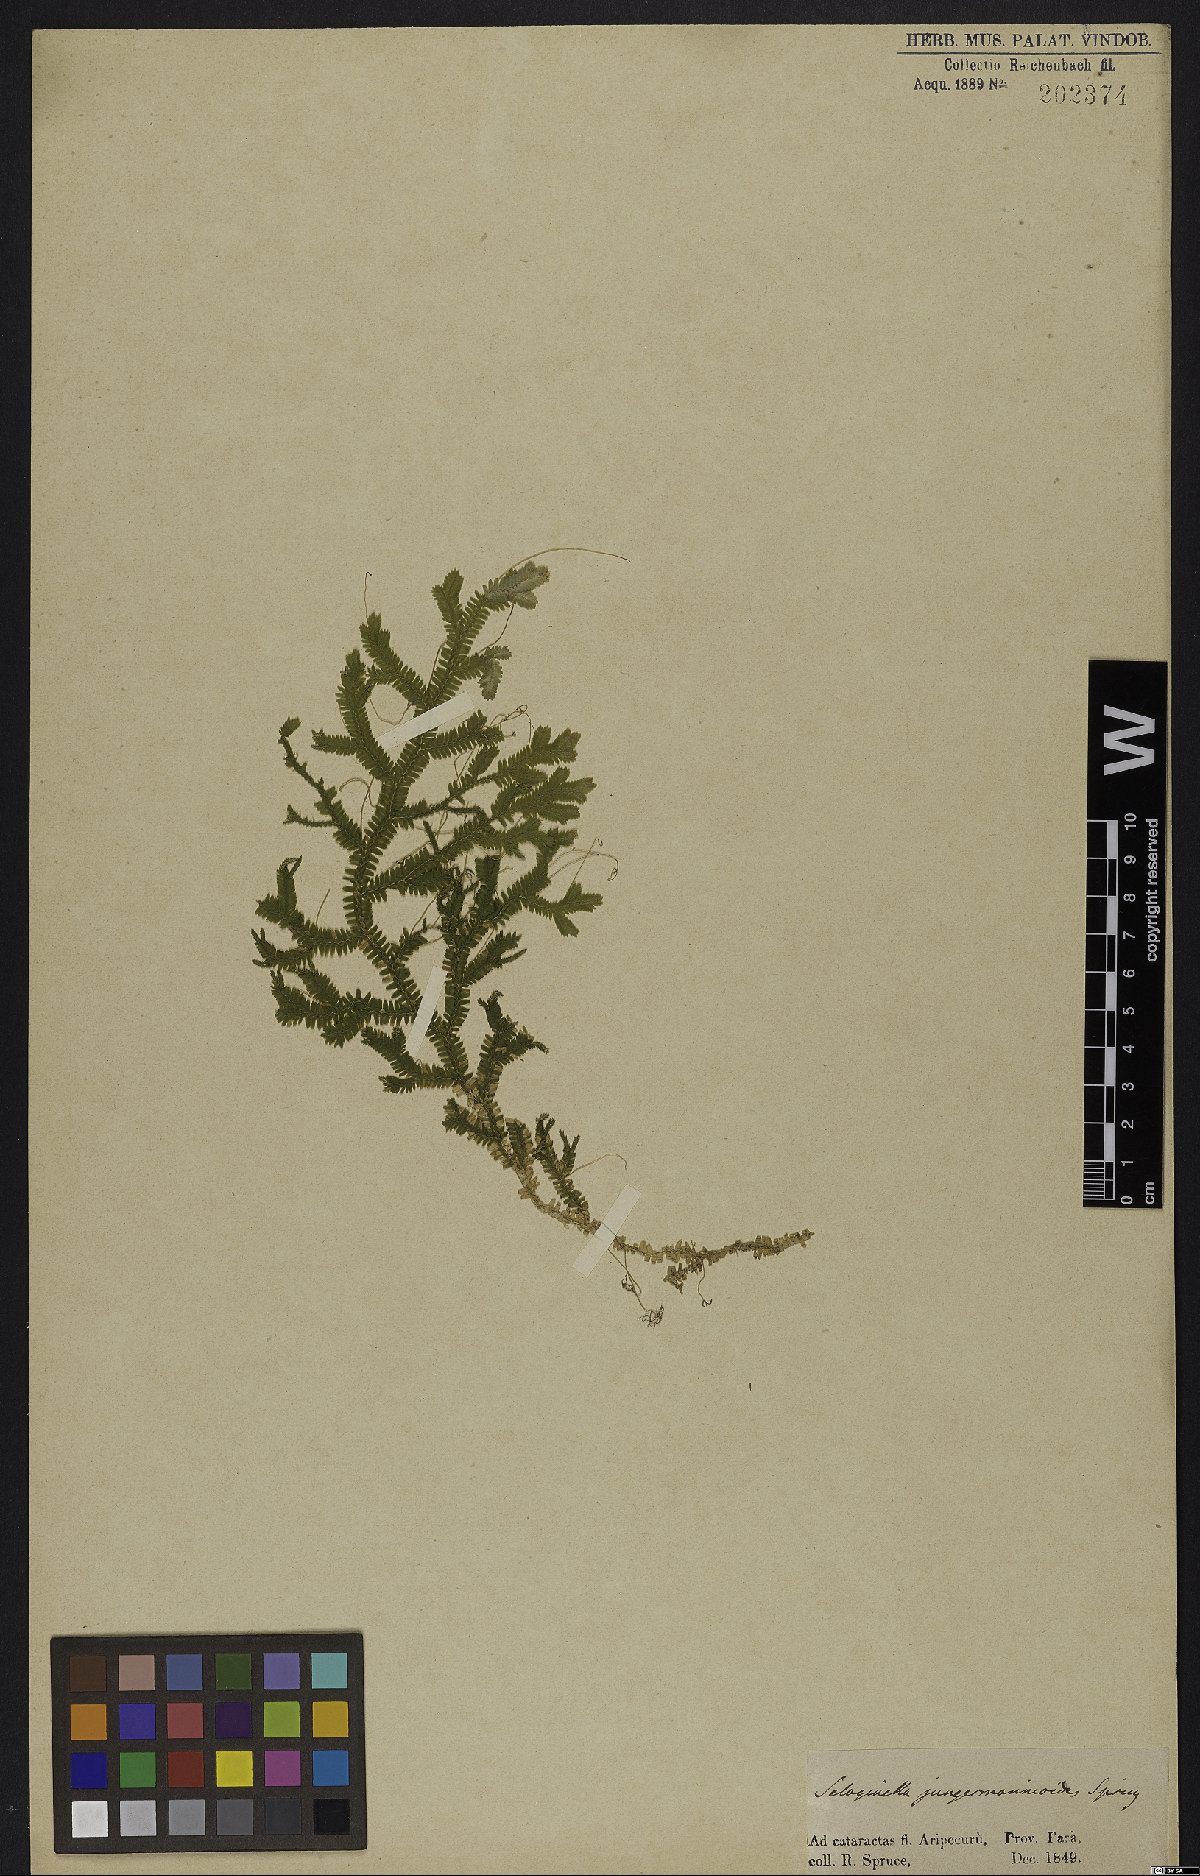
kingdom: Plantae
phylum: Tracheophyta
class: Lycopodiopsida
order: Selaginellales
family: Selaginellaceae
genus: Selaginella
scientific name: Selaginella jungermannioides
